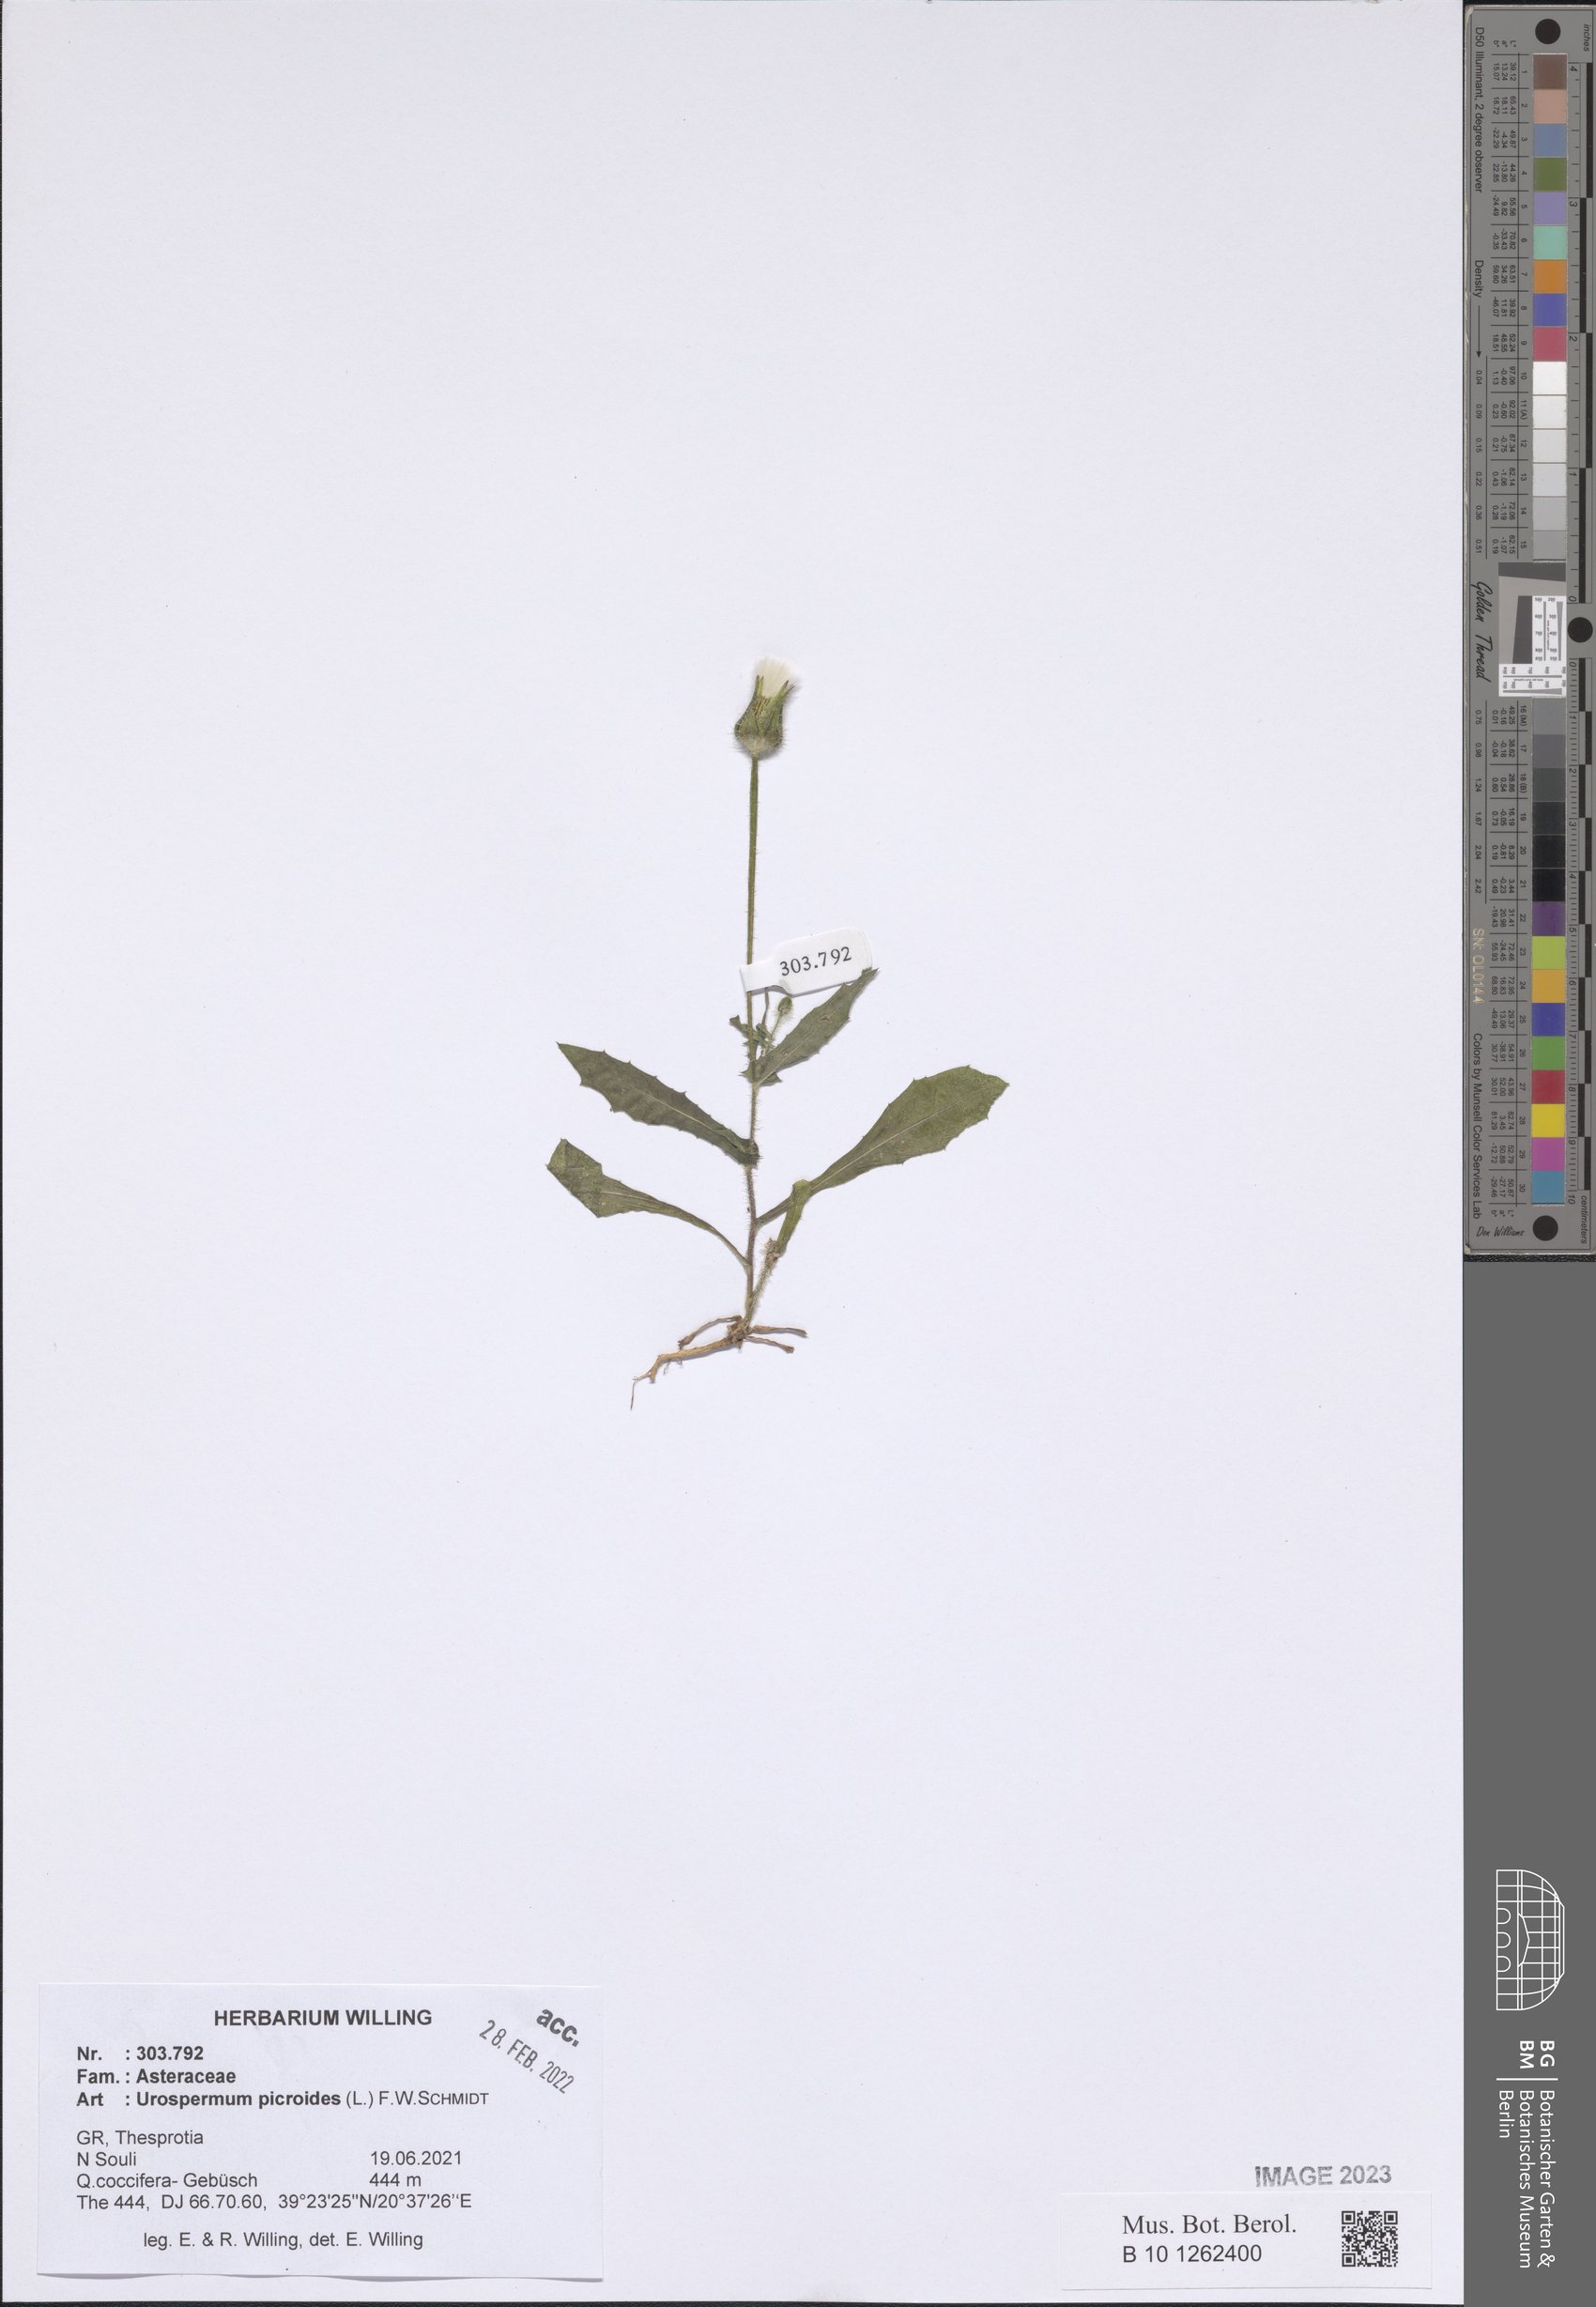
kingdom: Plantae
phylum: Tracheophyta
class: Magnoliopsida
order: Asterales
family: Asteraceae
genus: Urospermum
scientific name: Urospermum picroides
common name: False hawkbit
